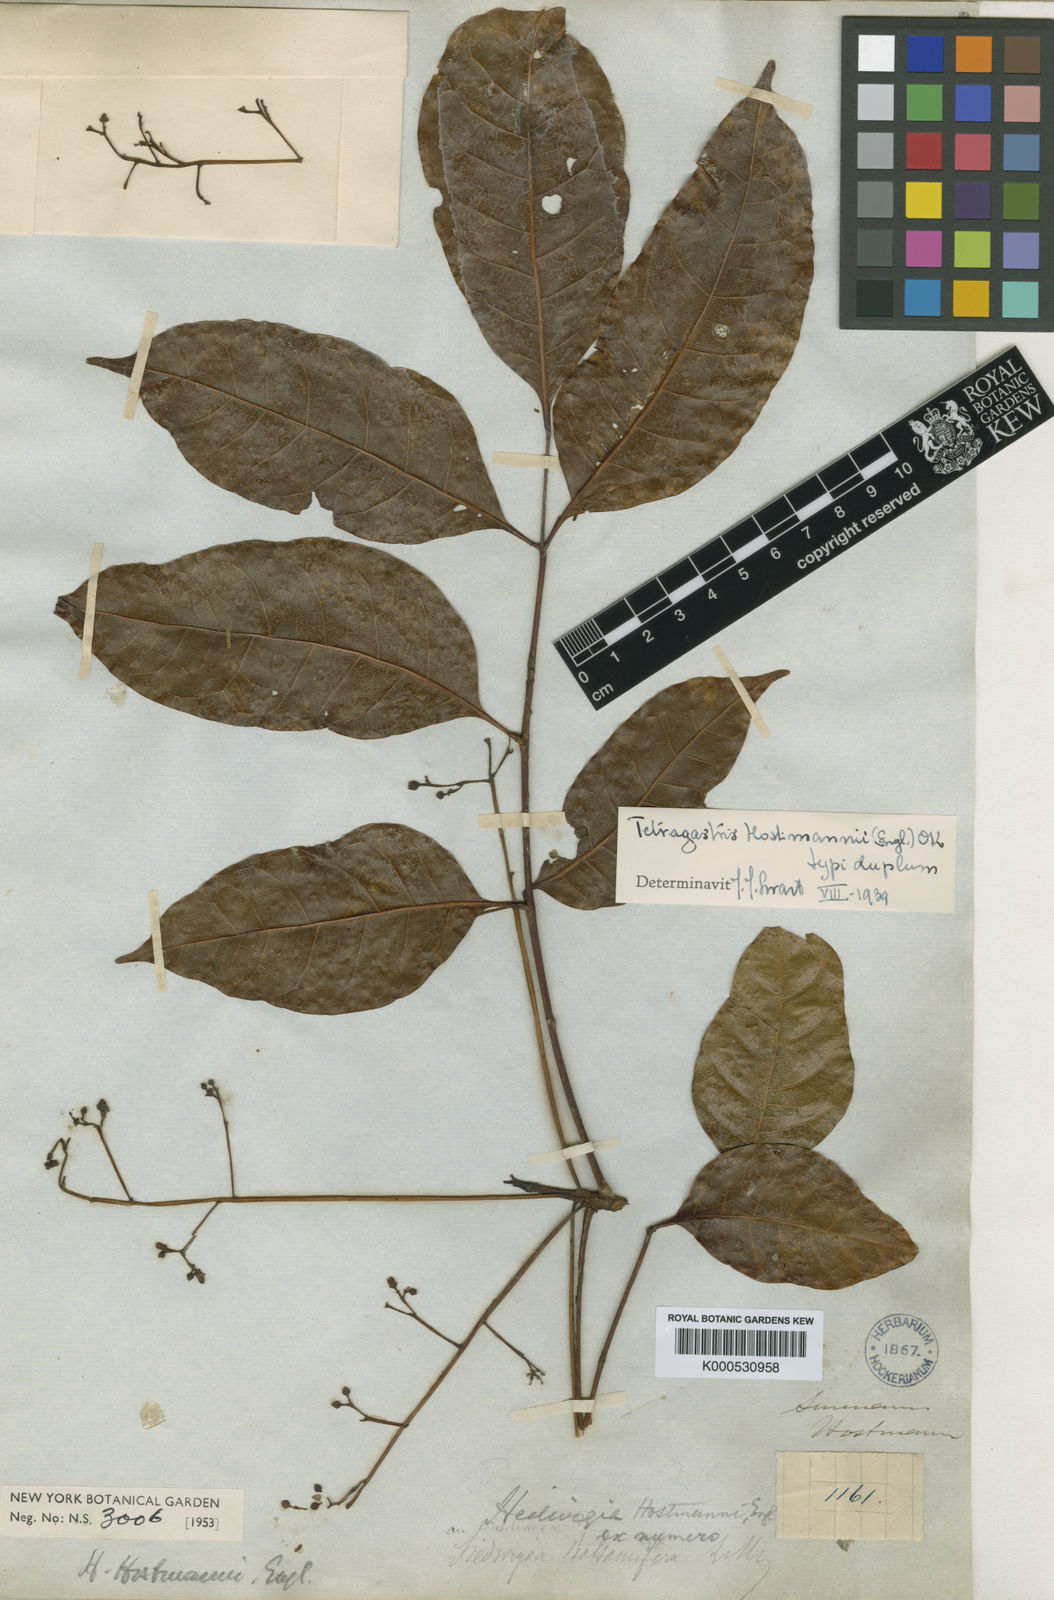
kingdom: Plantae
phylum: Tracheophyta
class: Magnoliopsida
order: Sapindales
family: Burseraceae
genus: Tetragastris
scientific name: Tetragastris hostmannii
